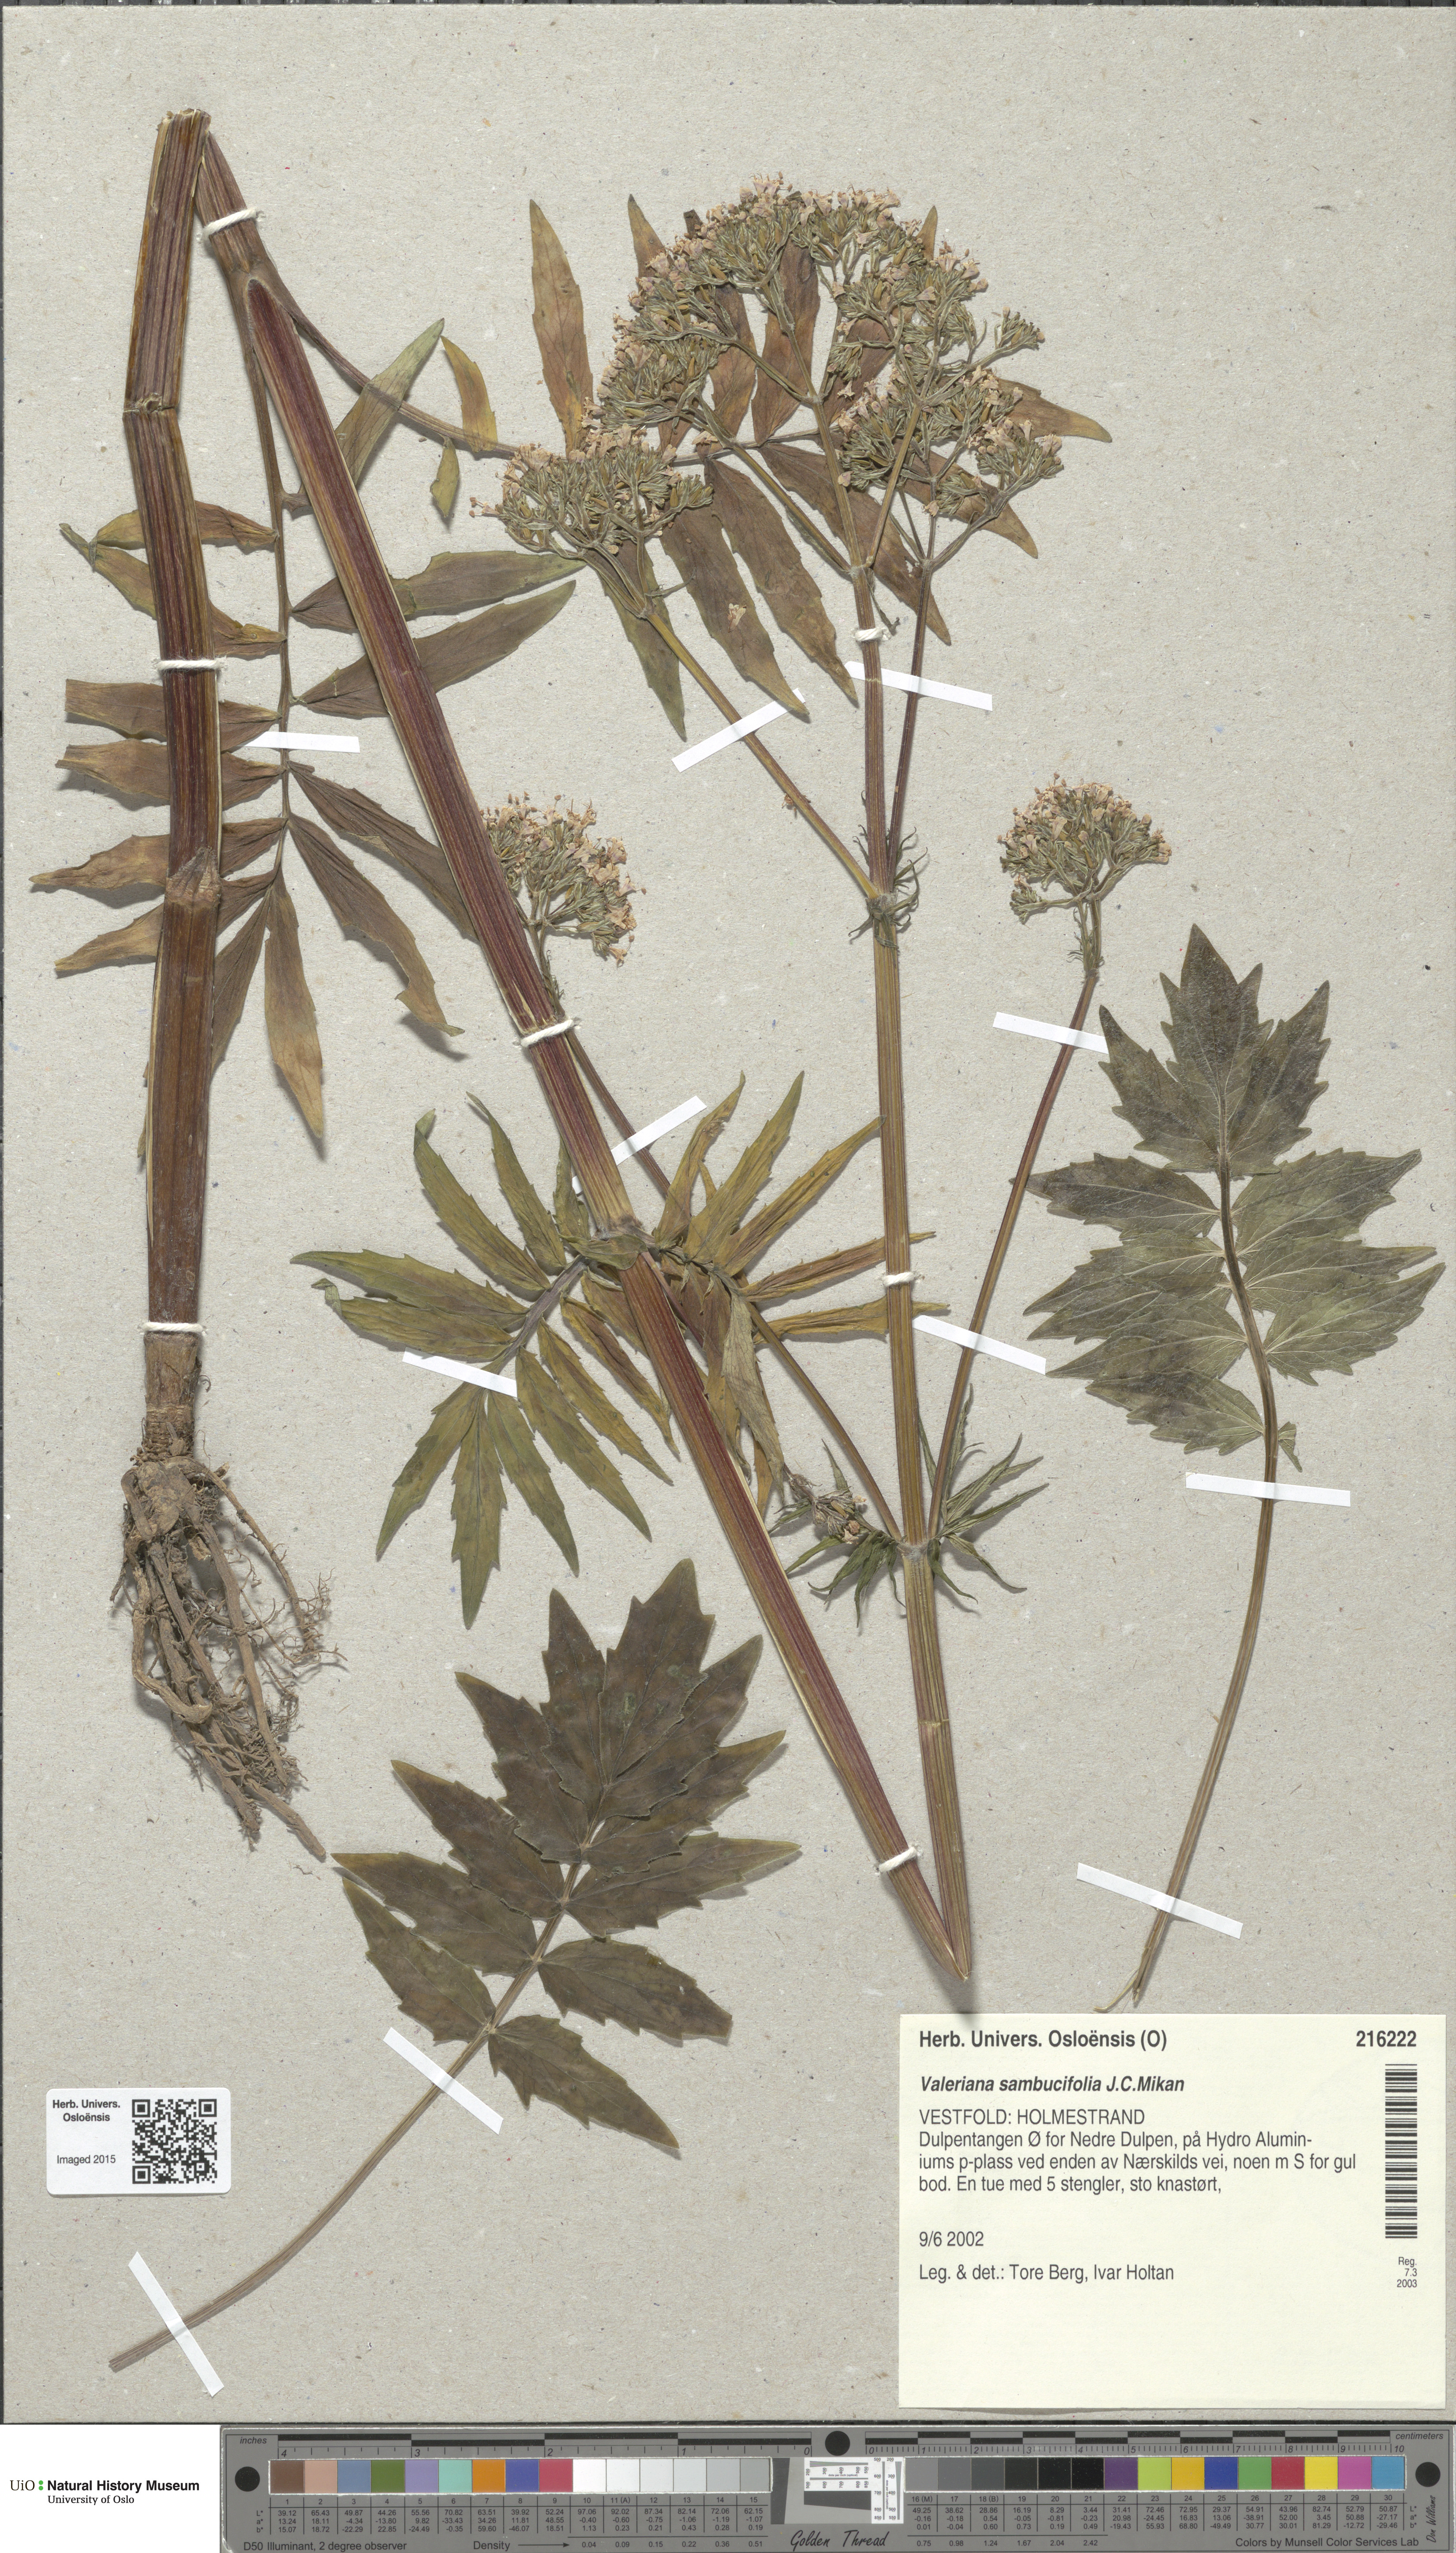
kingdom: Plantae
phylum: Tracheophyta
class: Magnoliopsida
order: Dipsacales
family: Caprifoliaceae
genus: Valeriana
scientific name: Valeriana excelsa
